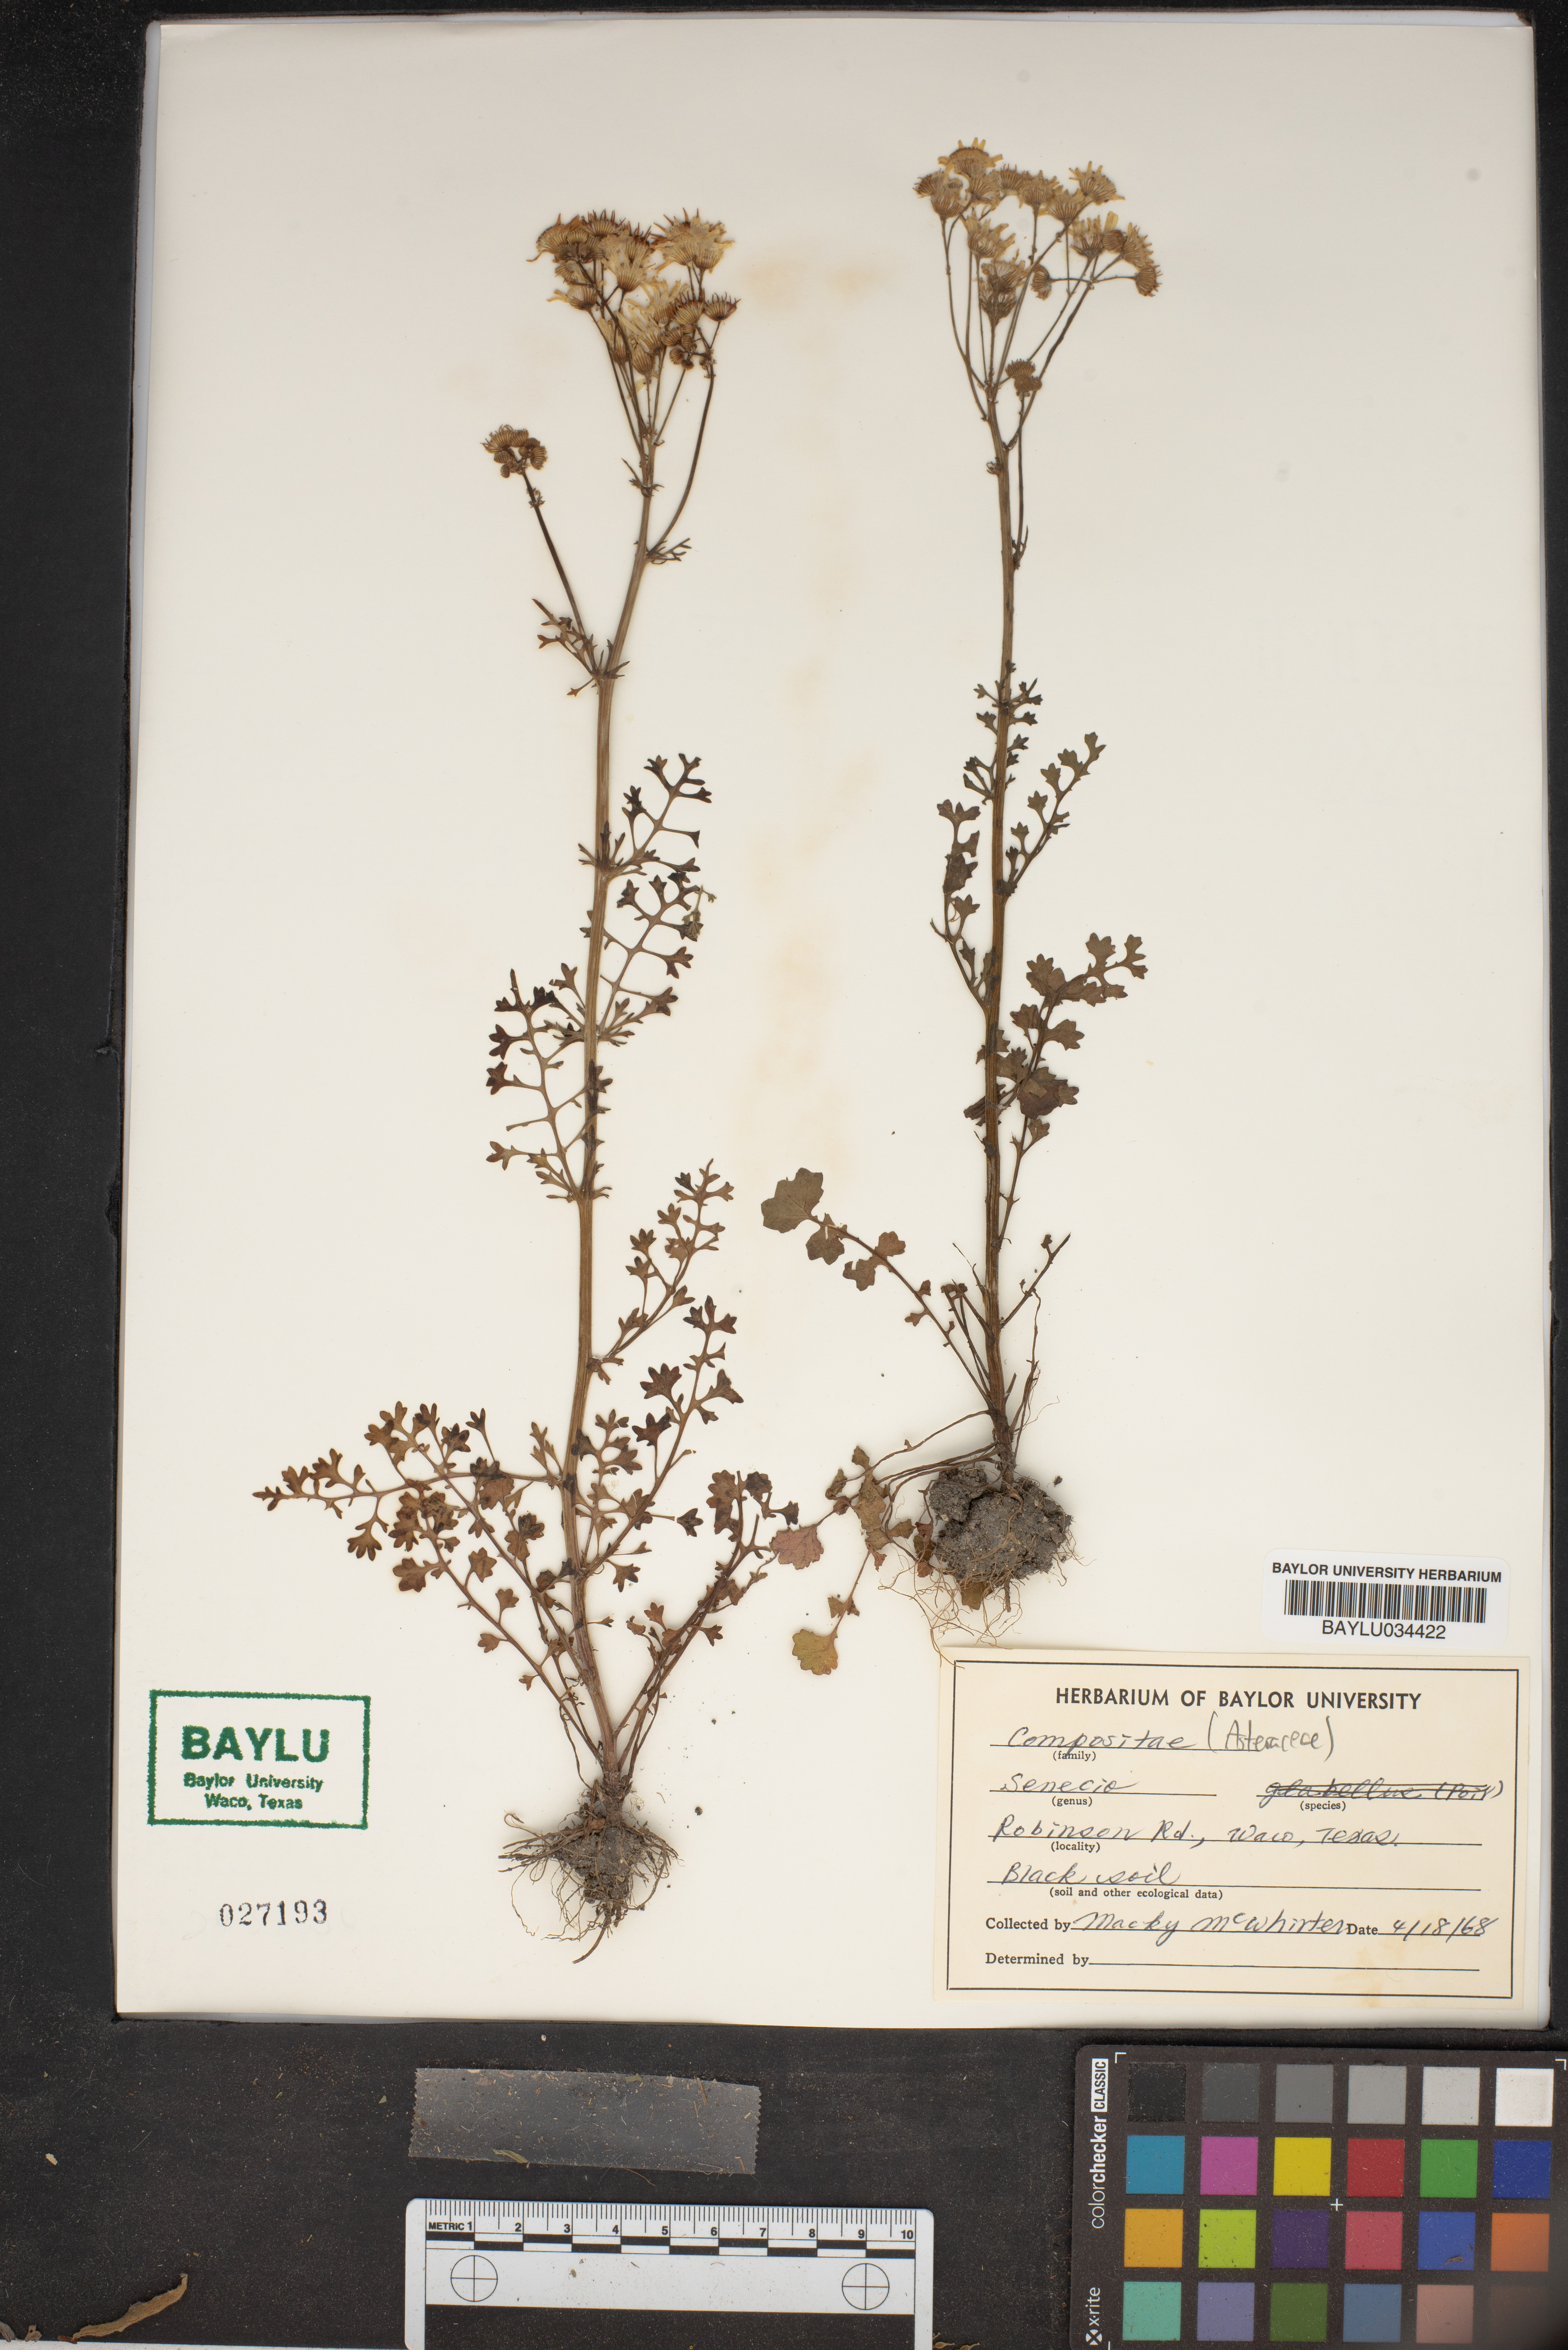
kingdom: Plantae
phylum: Tracheophyta
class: Magnoliopsida
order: Asterales
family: Asteraceae
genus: Senecio
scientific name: Senecio
